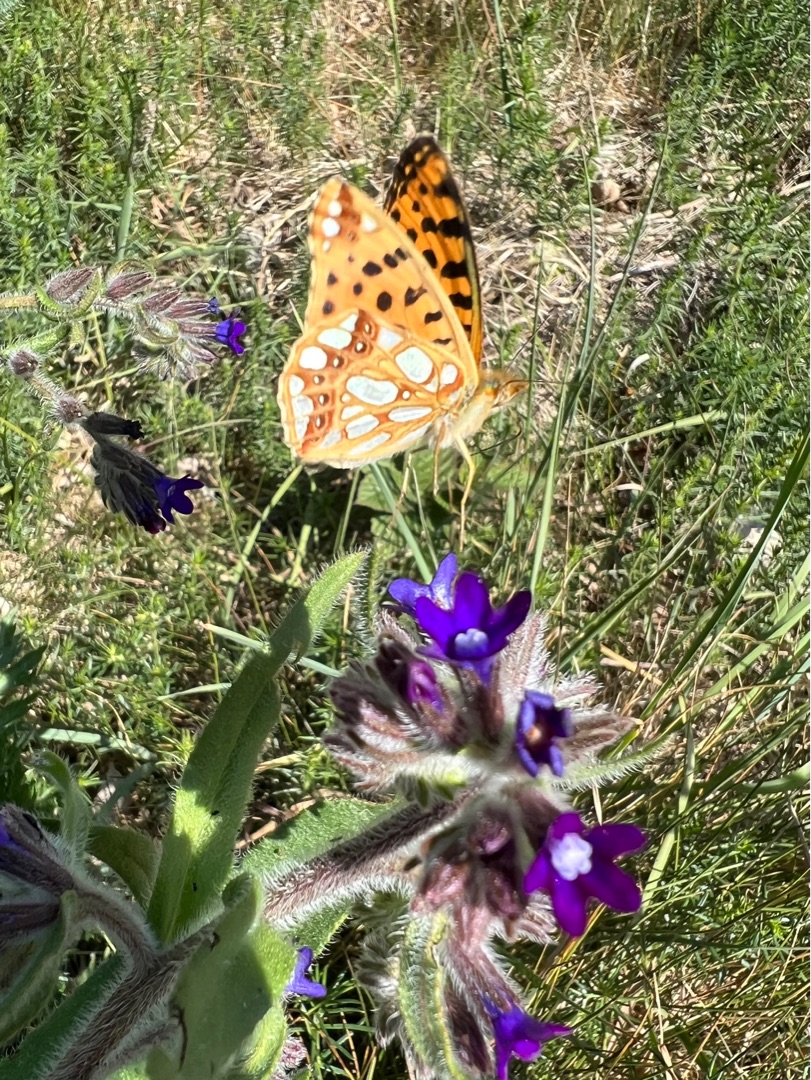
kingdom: Animalia
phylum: Arthropoda
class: Insecta
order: Lepidoptera
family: Nymphalidae
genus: Issoria
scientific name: Issoria lathonia
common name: Storplettet perlemorsommerfugl
